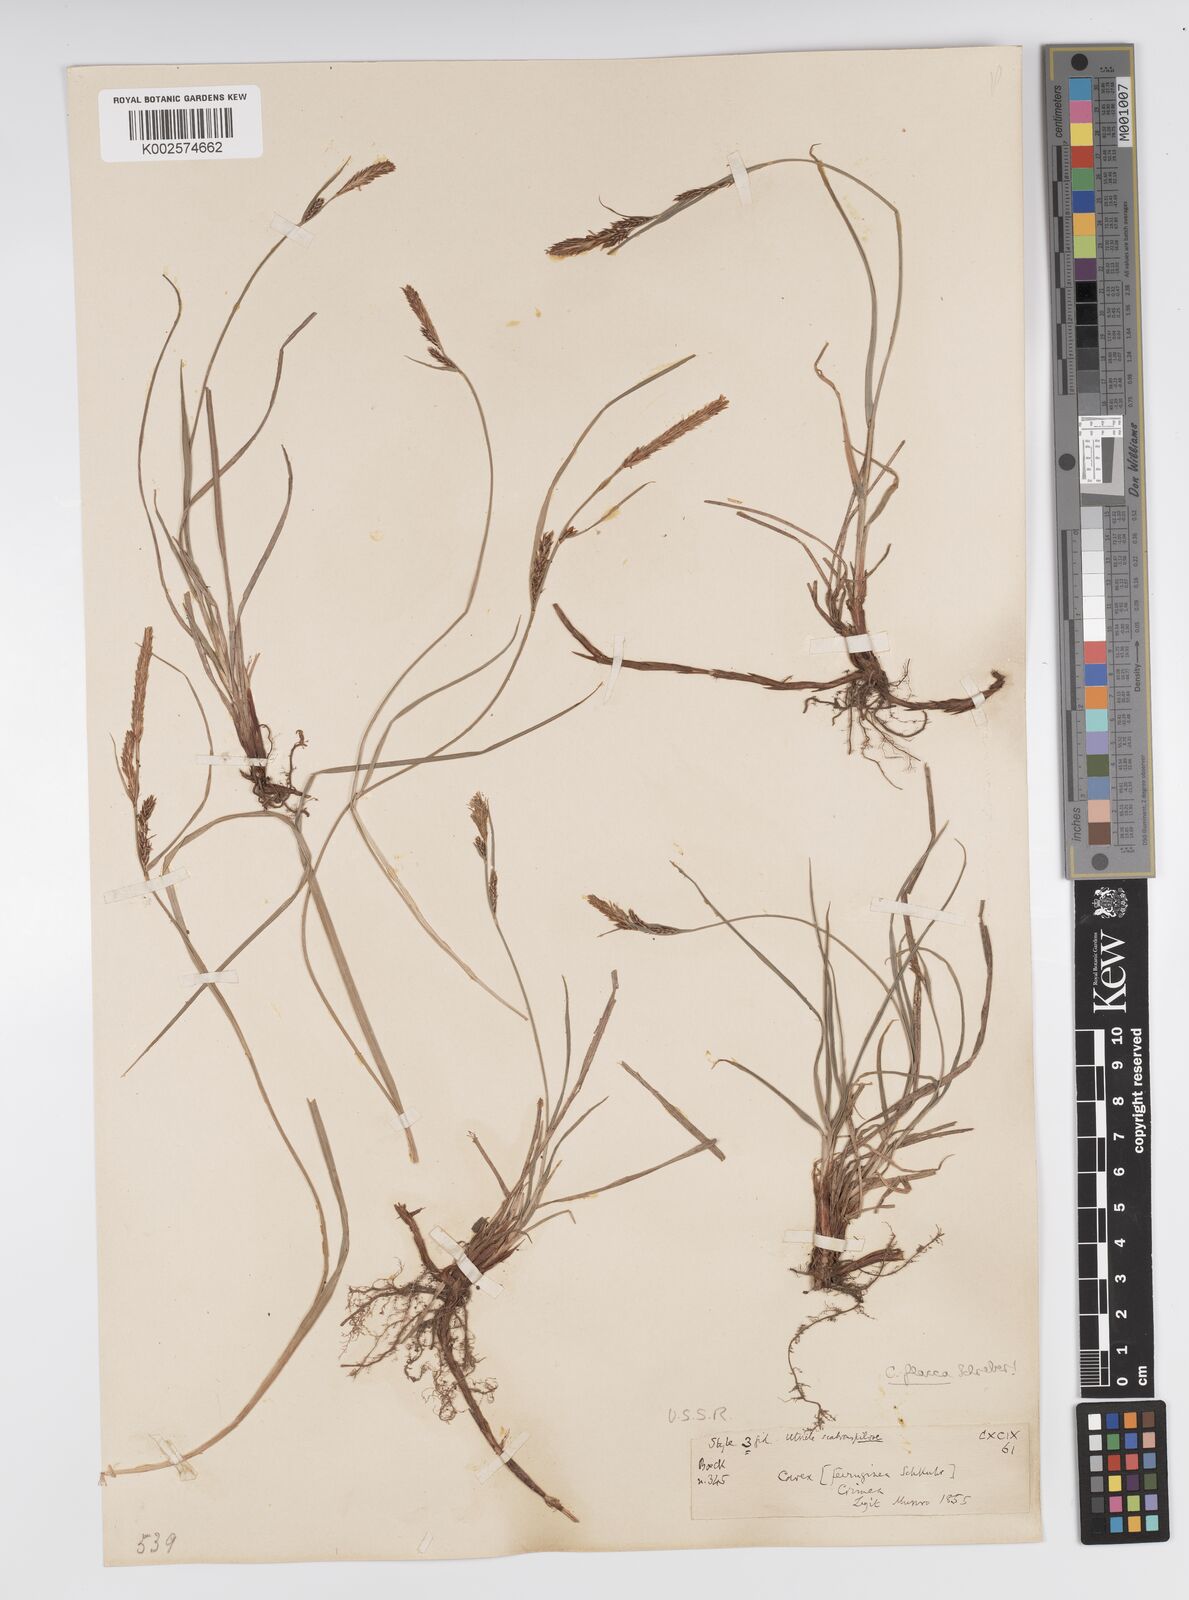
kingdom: Plantae
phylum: Tracheophyta
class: Liliopsida
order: Poales
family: Cyperaceae
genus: Carex
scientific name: Carex ferruginea
